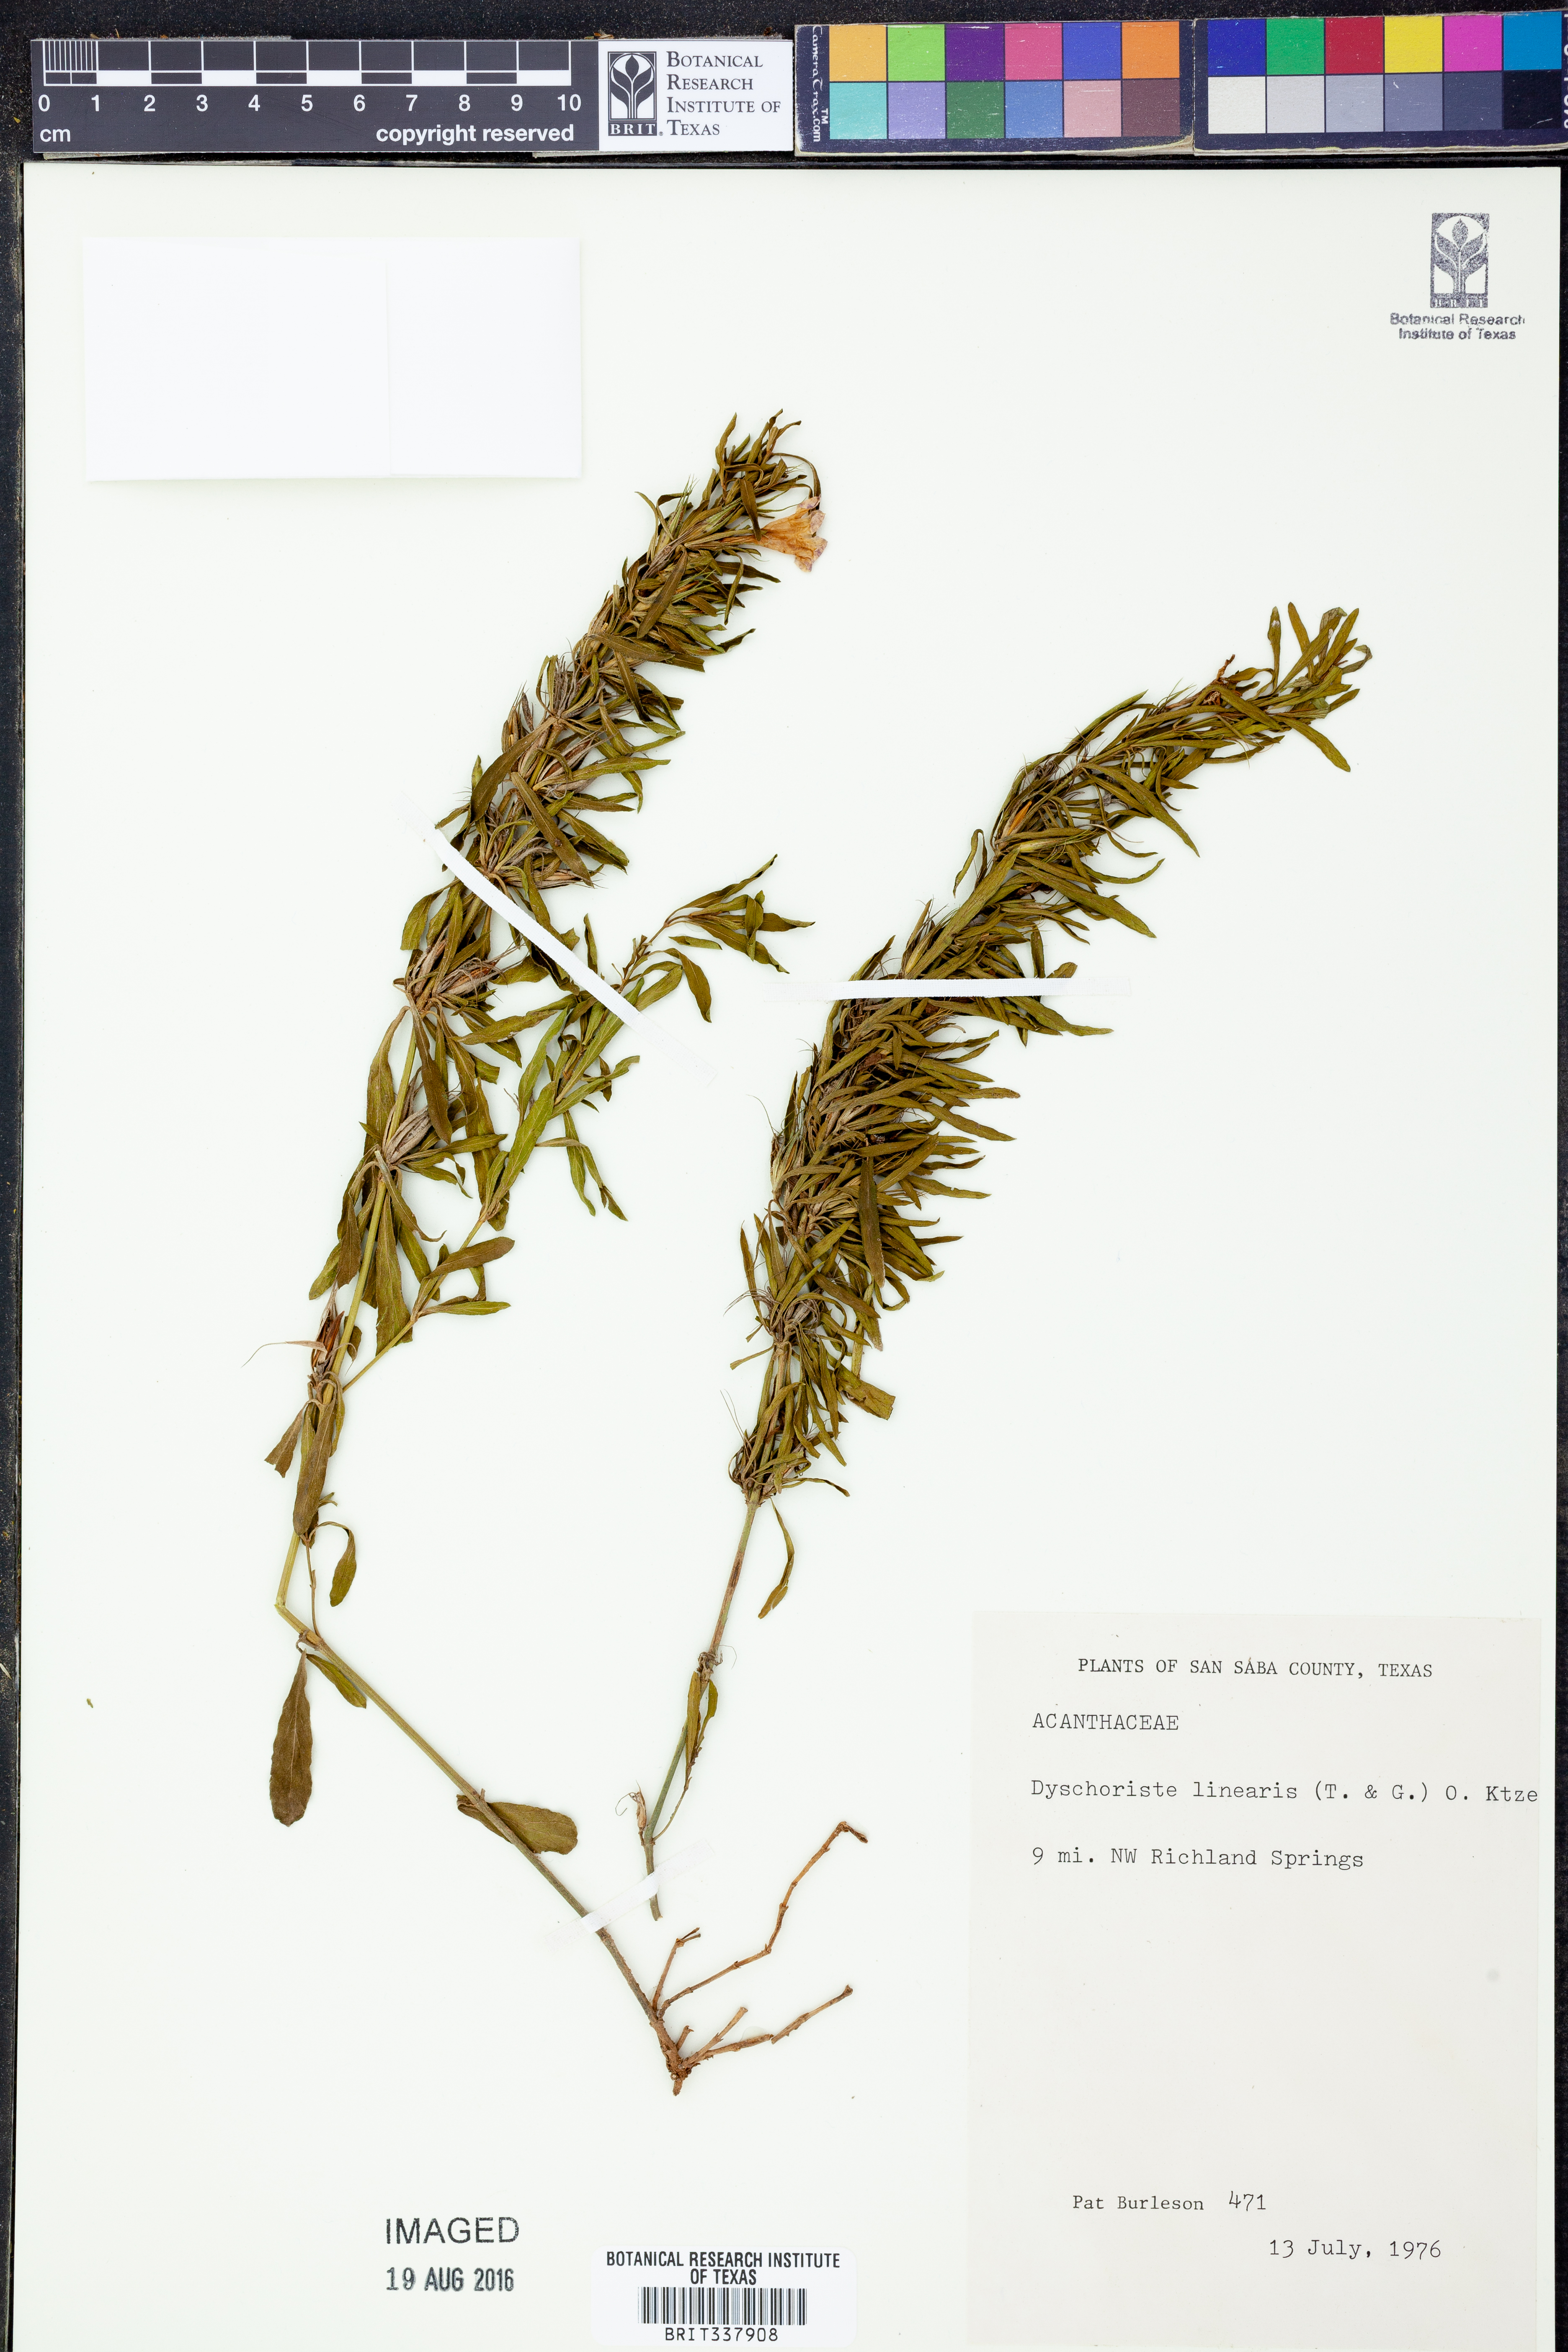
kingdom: Plantae
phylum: Tracheophyta
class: Magnoliopsida
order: Lamiales
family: Acanthaceae
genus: Dyschoriste
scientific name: Dyschoriste linearis
